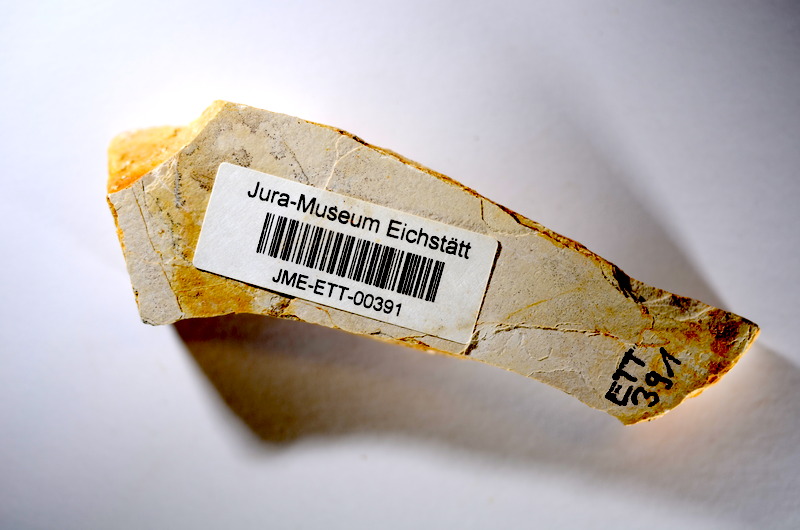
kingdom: Animalia
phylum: Chordata
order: Salmoniformes
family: Orthogonikleithridae
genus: Orthogonikleithrus
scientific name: Orthogonikleithrus hoelli
